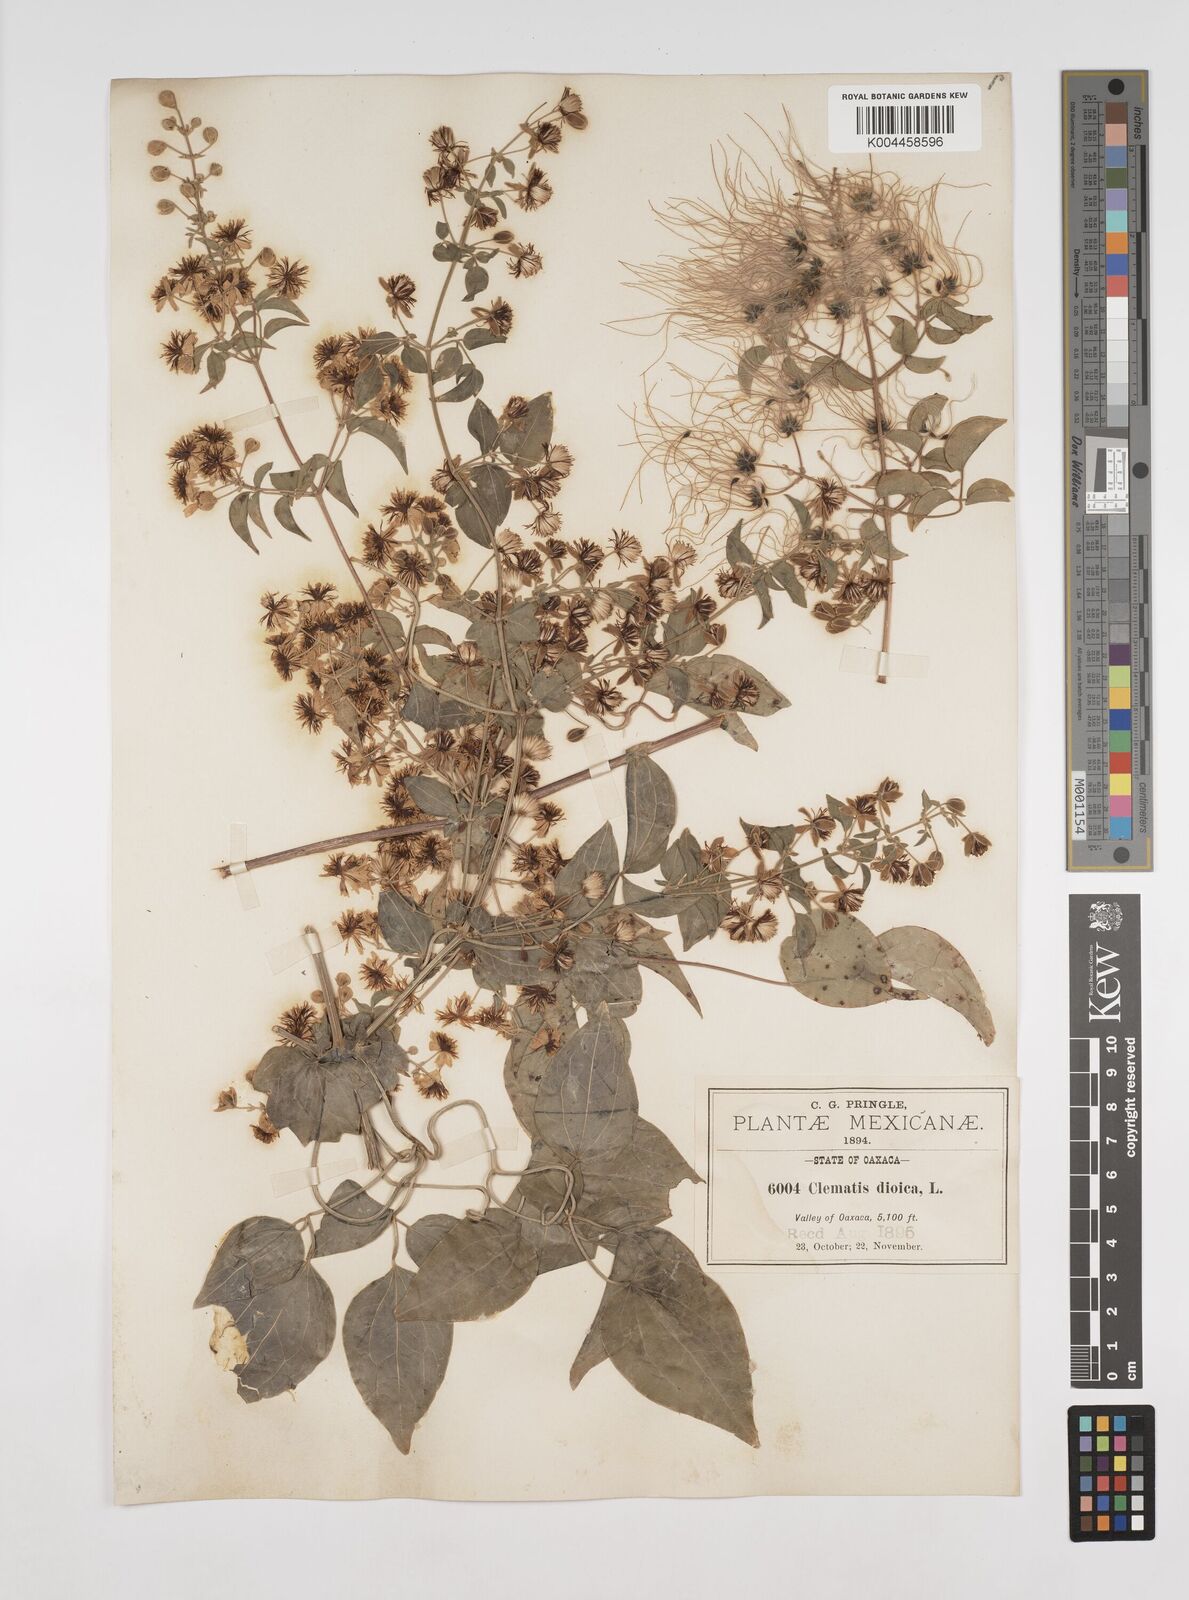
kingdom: Plantae
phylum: Tracheophyta
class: Magnoliopsida
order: Ranunculales
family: Ranunculaceae
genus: Clematis
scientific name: Clematis acapulcensis
